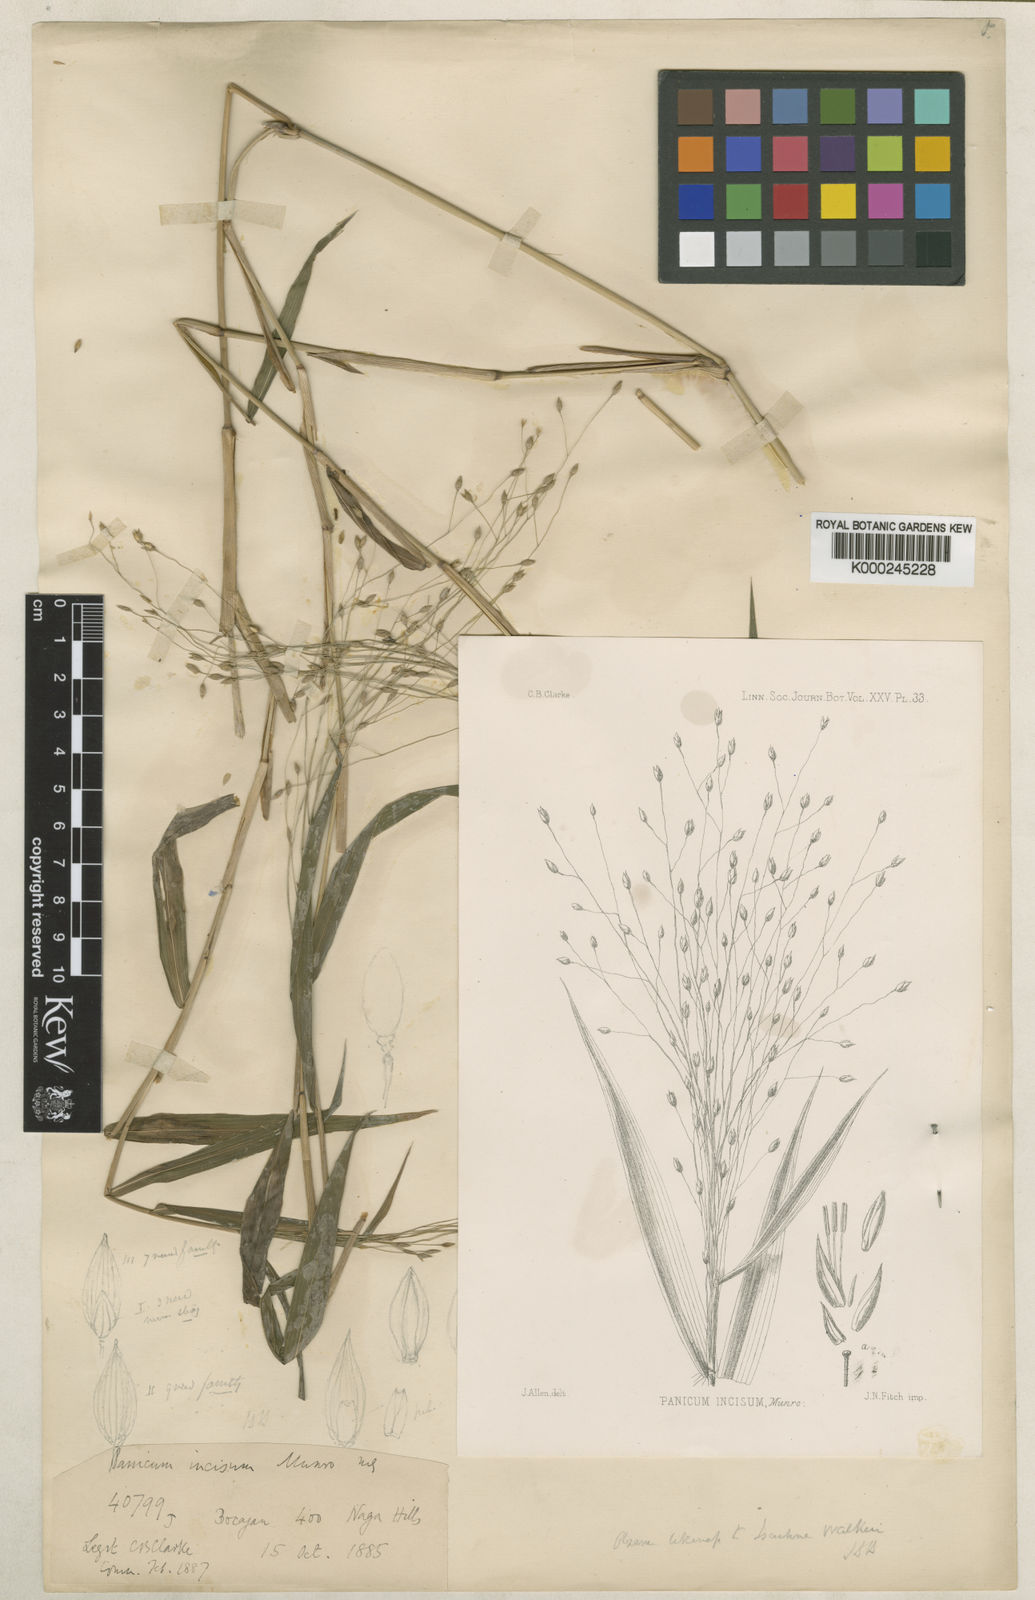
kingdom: Plantae
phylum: Tracheophyta
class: Liliopsida
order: Poales
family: Poaceae
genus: Panicum
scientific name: Panicum incisum
